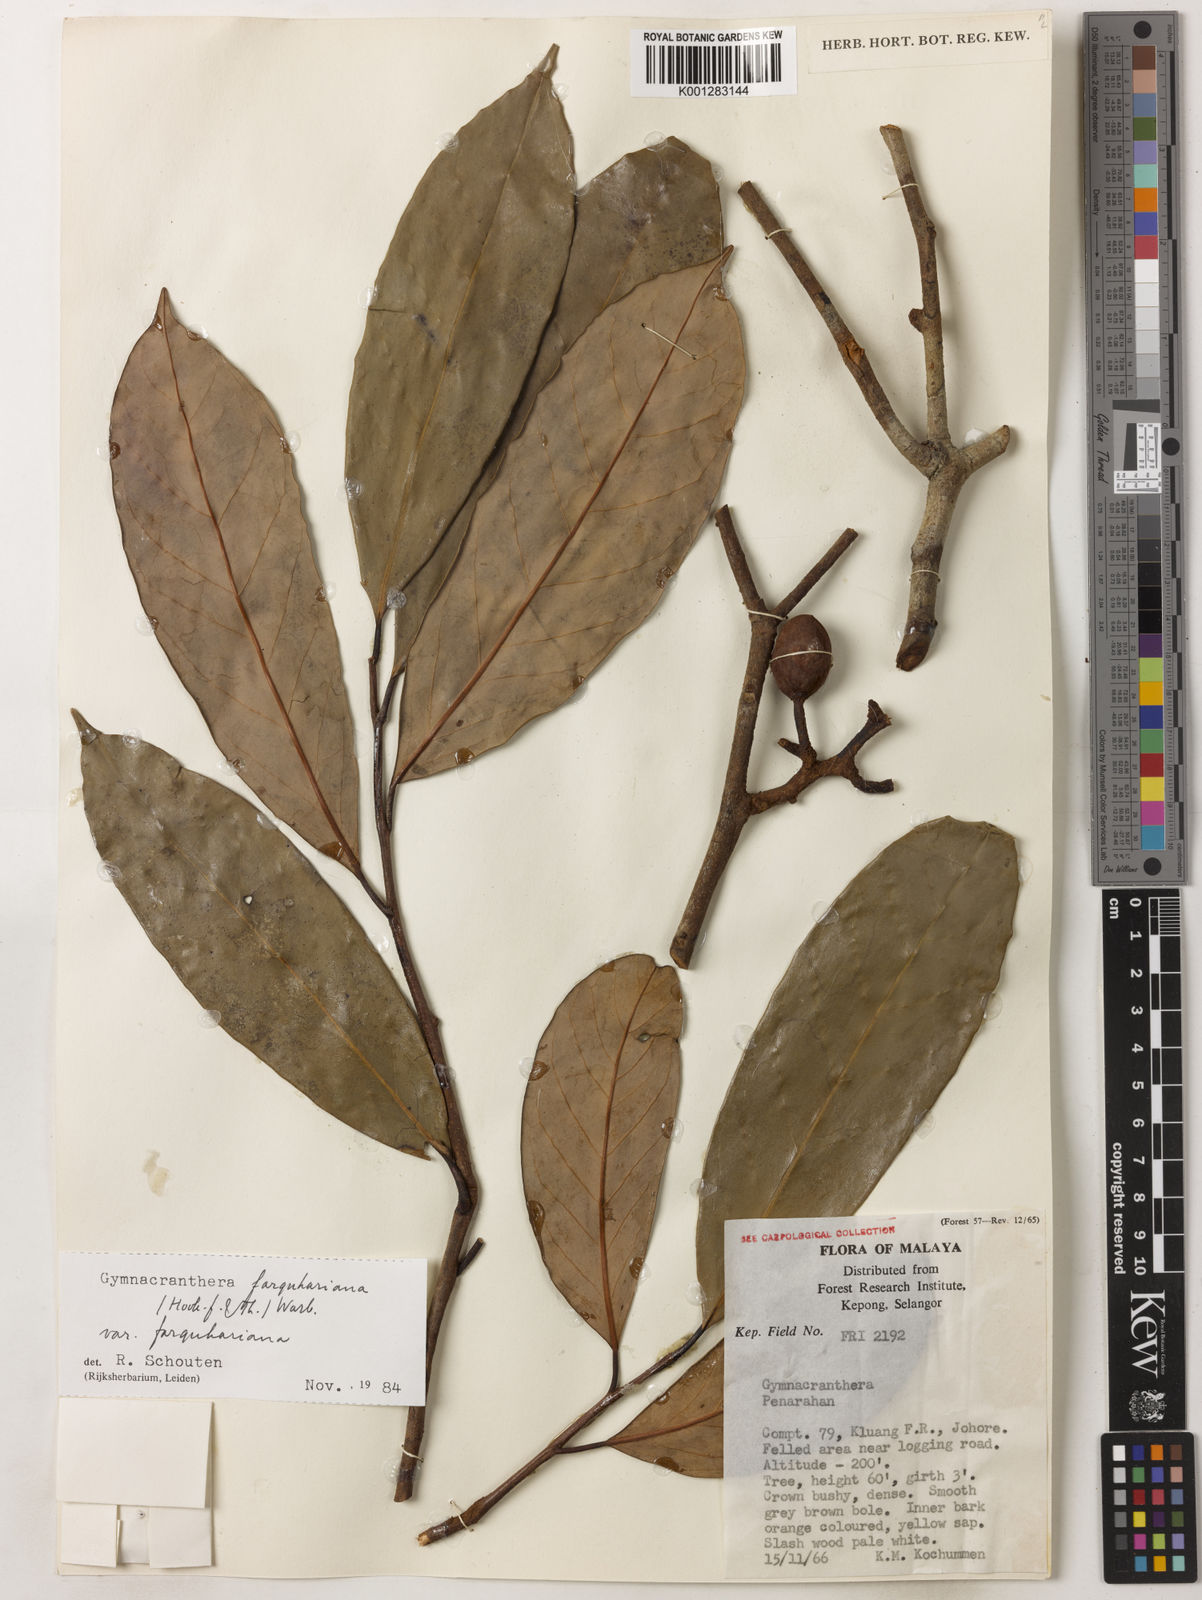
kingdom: Plantae
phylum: Tracheophyta
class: Magnoliopsida
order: Magnoliales
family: Myristicaceae
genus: Gymnacranthera
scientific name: Gymnacranthera farquhariana
